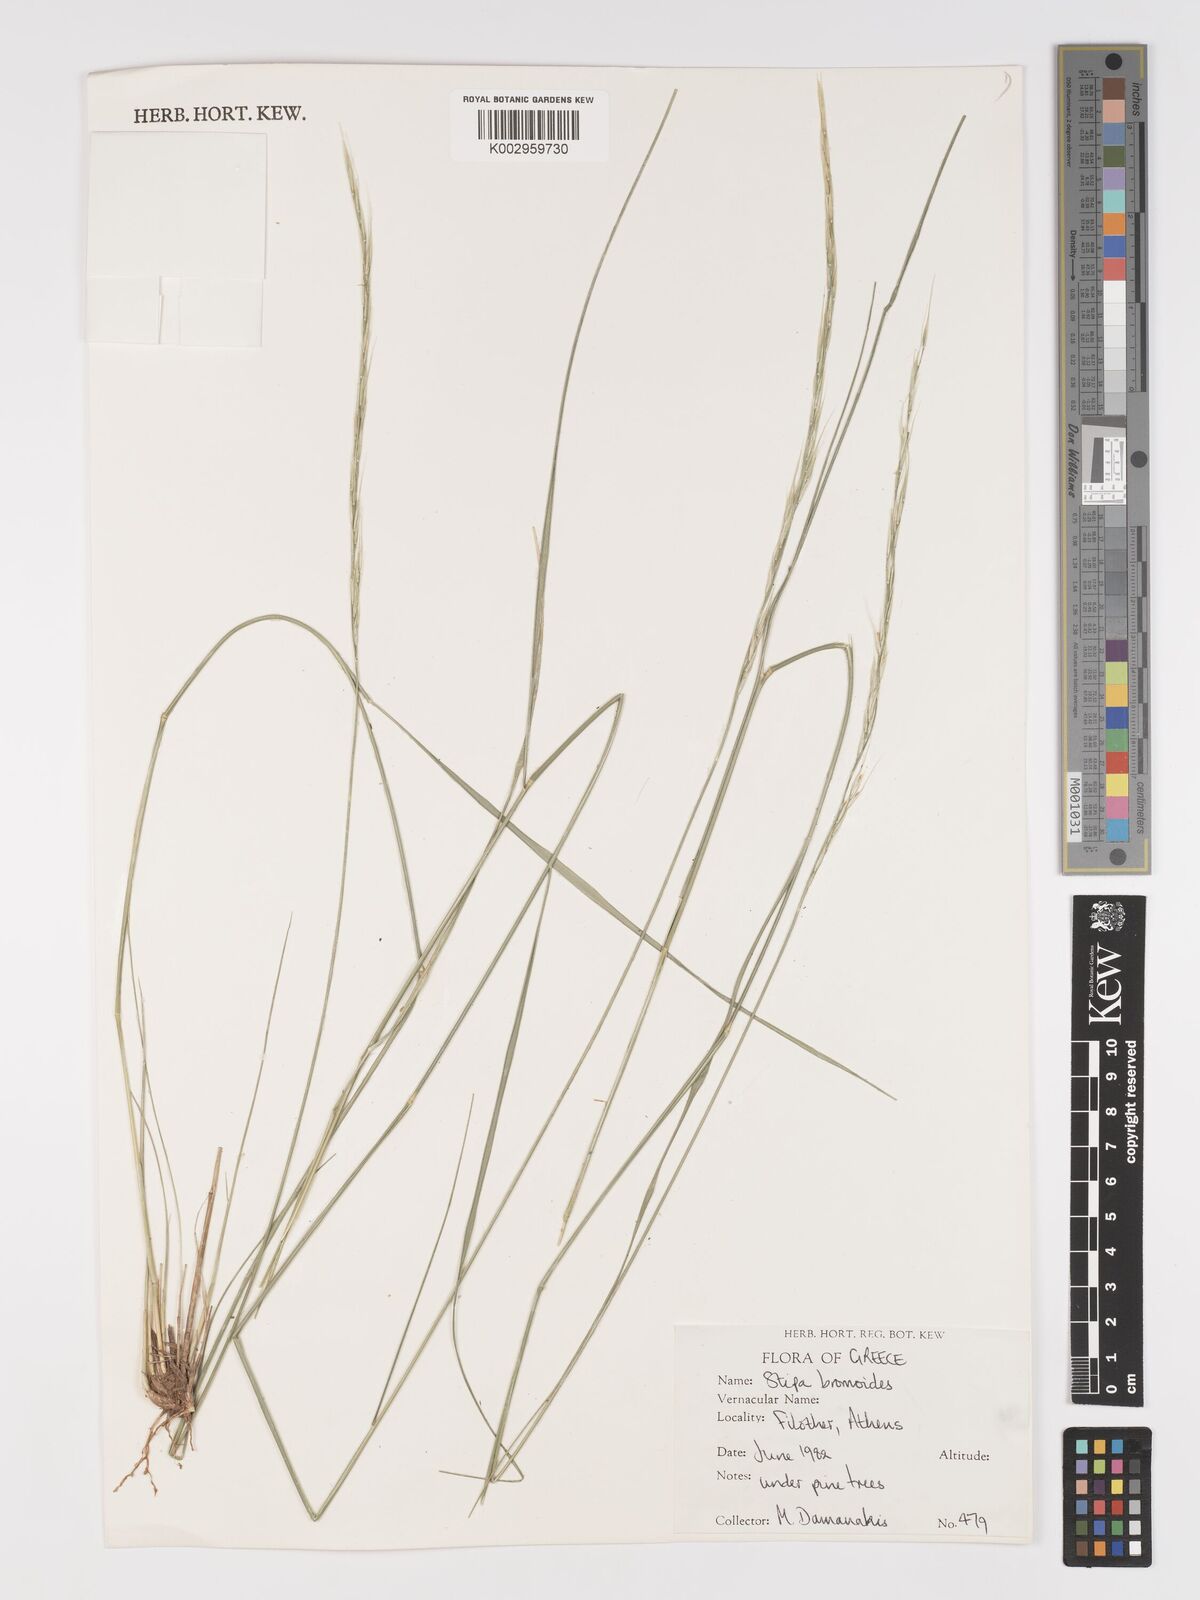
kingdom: Plantae
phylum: Tracheophyta
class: Liliopsida
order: Poales
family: Poaceae
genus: Achnatherum
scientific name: Achnatherum bromoides
